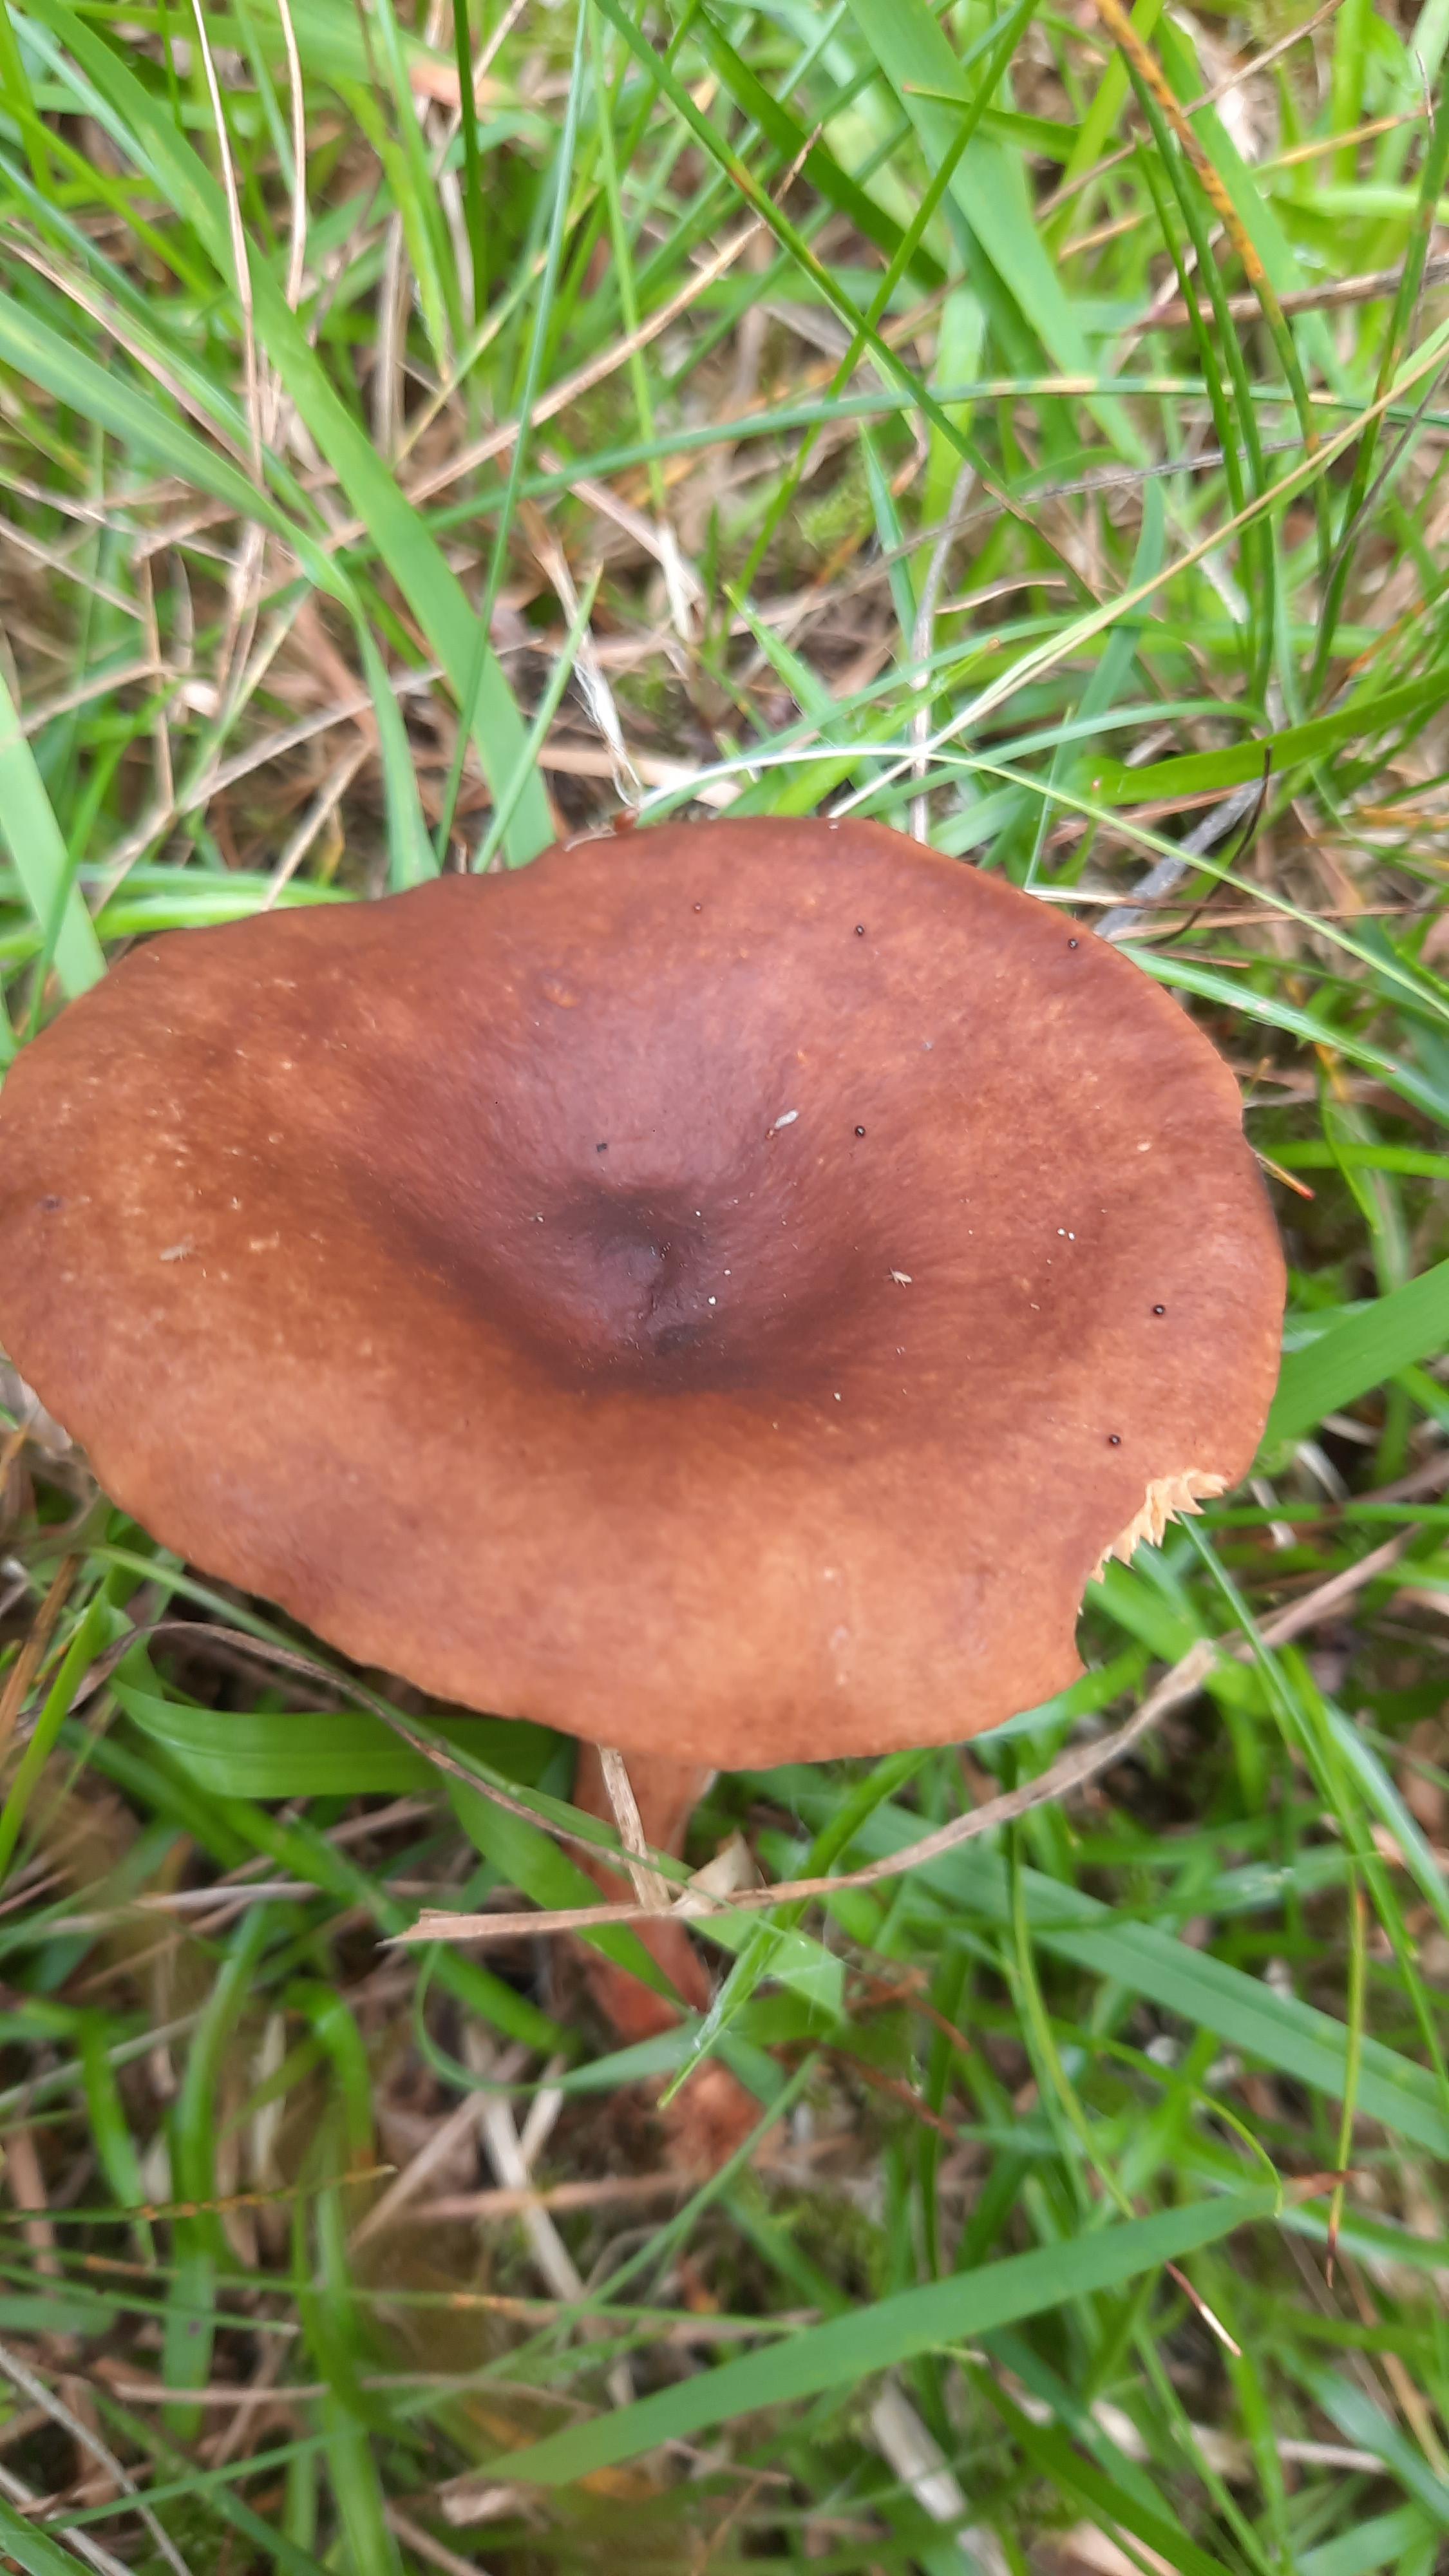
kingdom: Fungi
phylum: Basidiomycota
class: Agaricomycetes
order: Russulales
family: Russulaceae
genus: Lactarius
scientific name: Lactarius camphoratus
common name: kamfer-mælkehat
